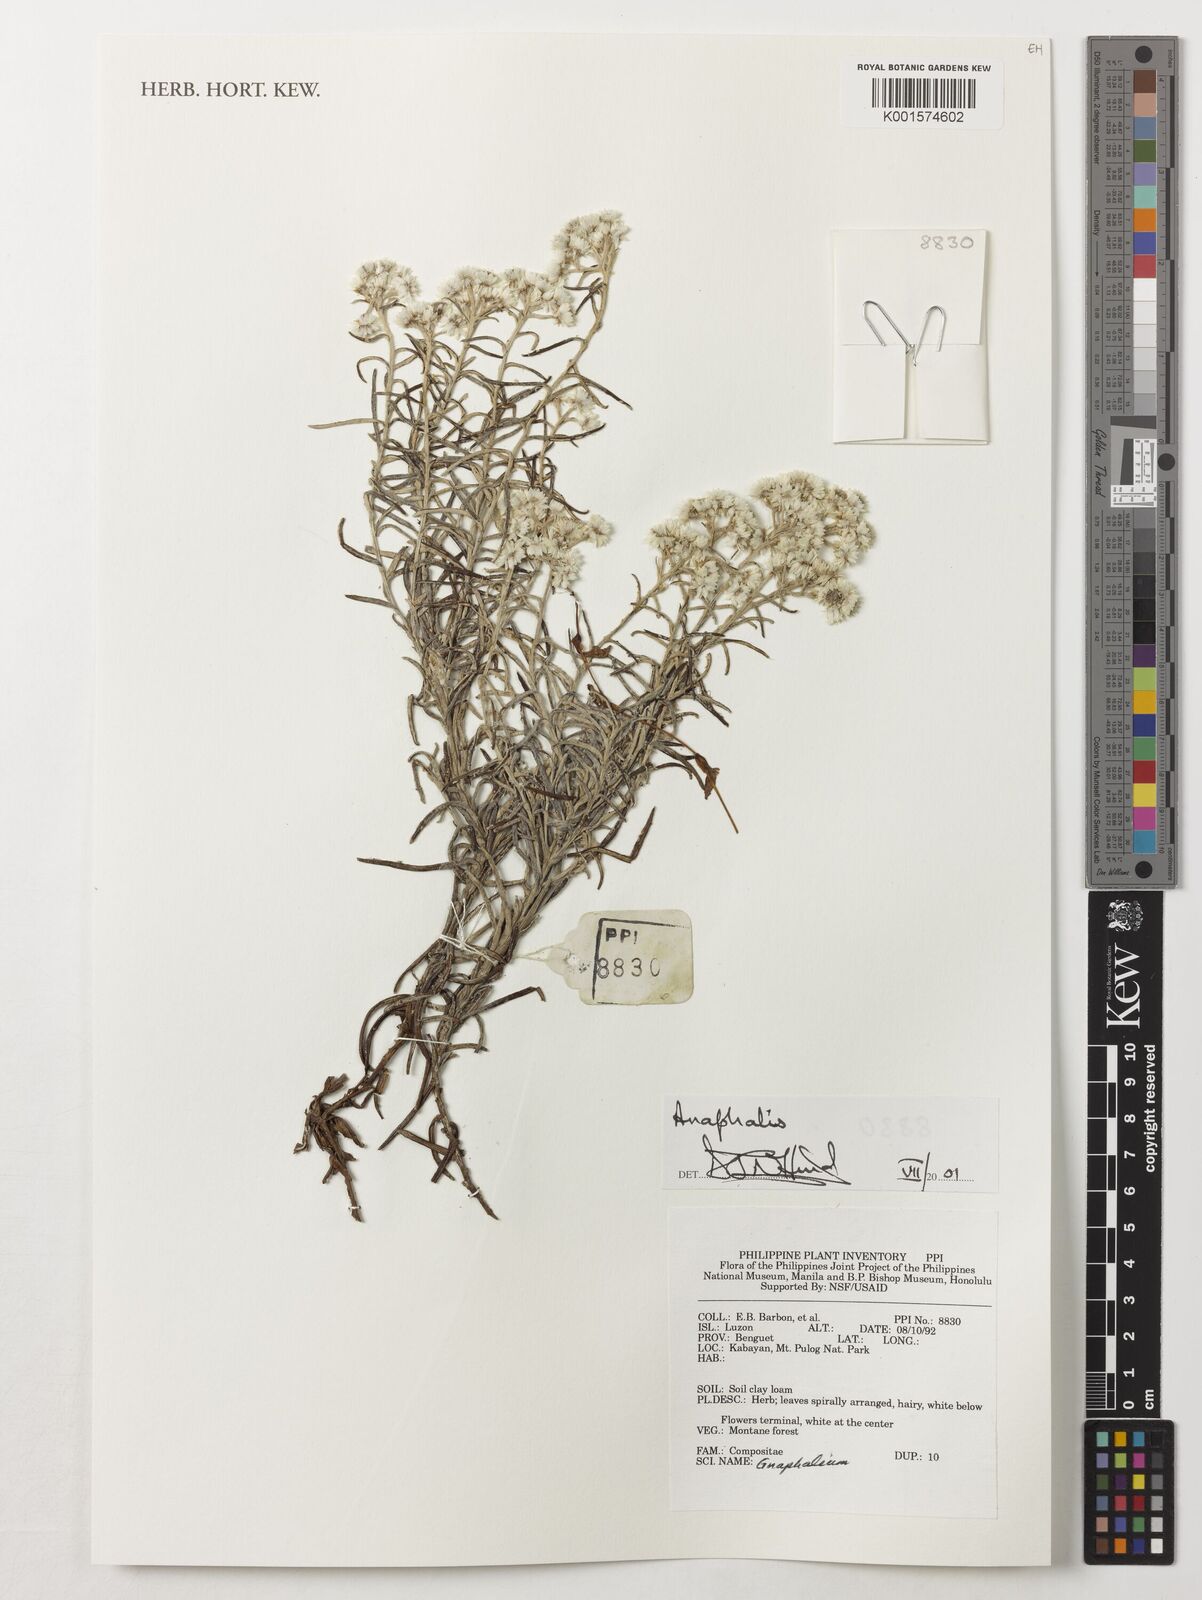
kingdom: Plantae
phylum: Tracheophyta
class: Magnoliopsida
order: Asterales
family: Asteraceae
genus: Anaphalis
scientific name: Anaphalis
